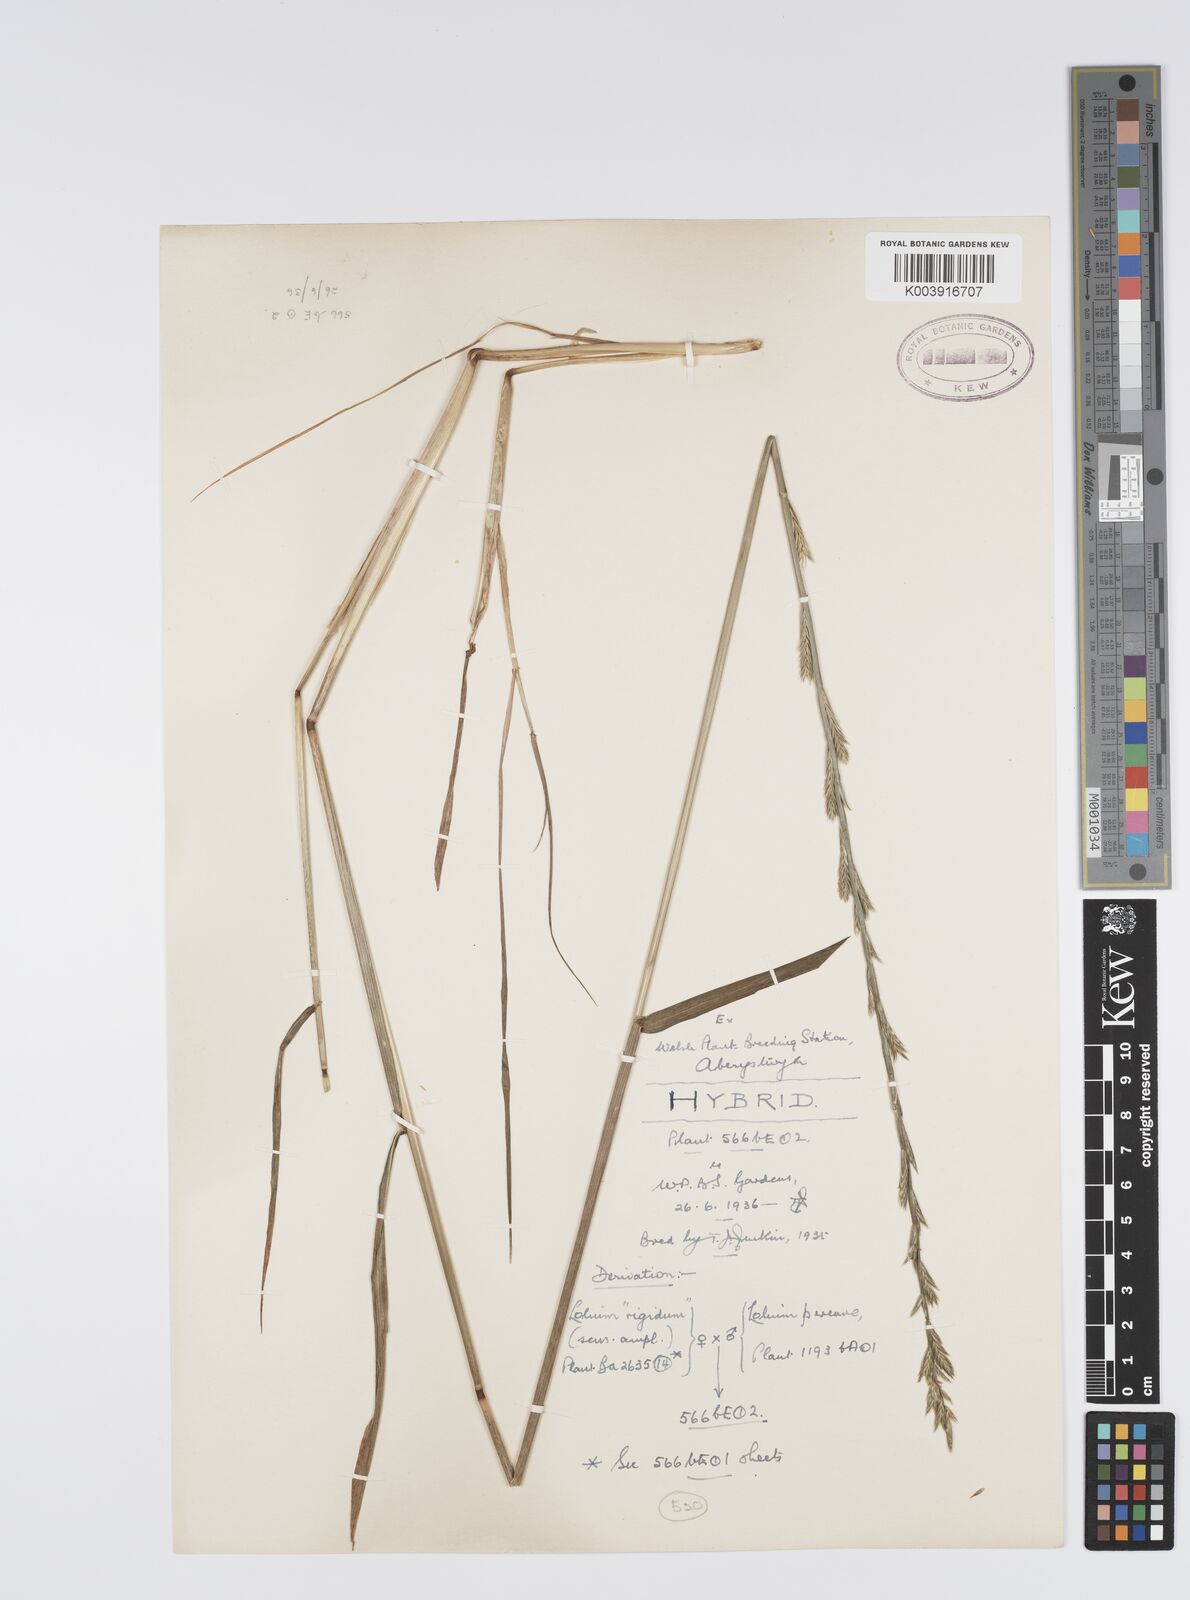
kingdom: Plantae
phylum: Tracheophyta
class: Liliopsida
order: Poales
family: Poaceae
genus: Lolium
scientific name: Lolium perenne
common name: Perennial ryegrass
